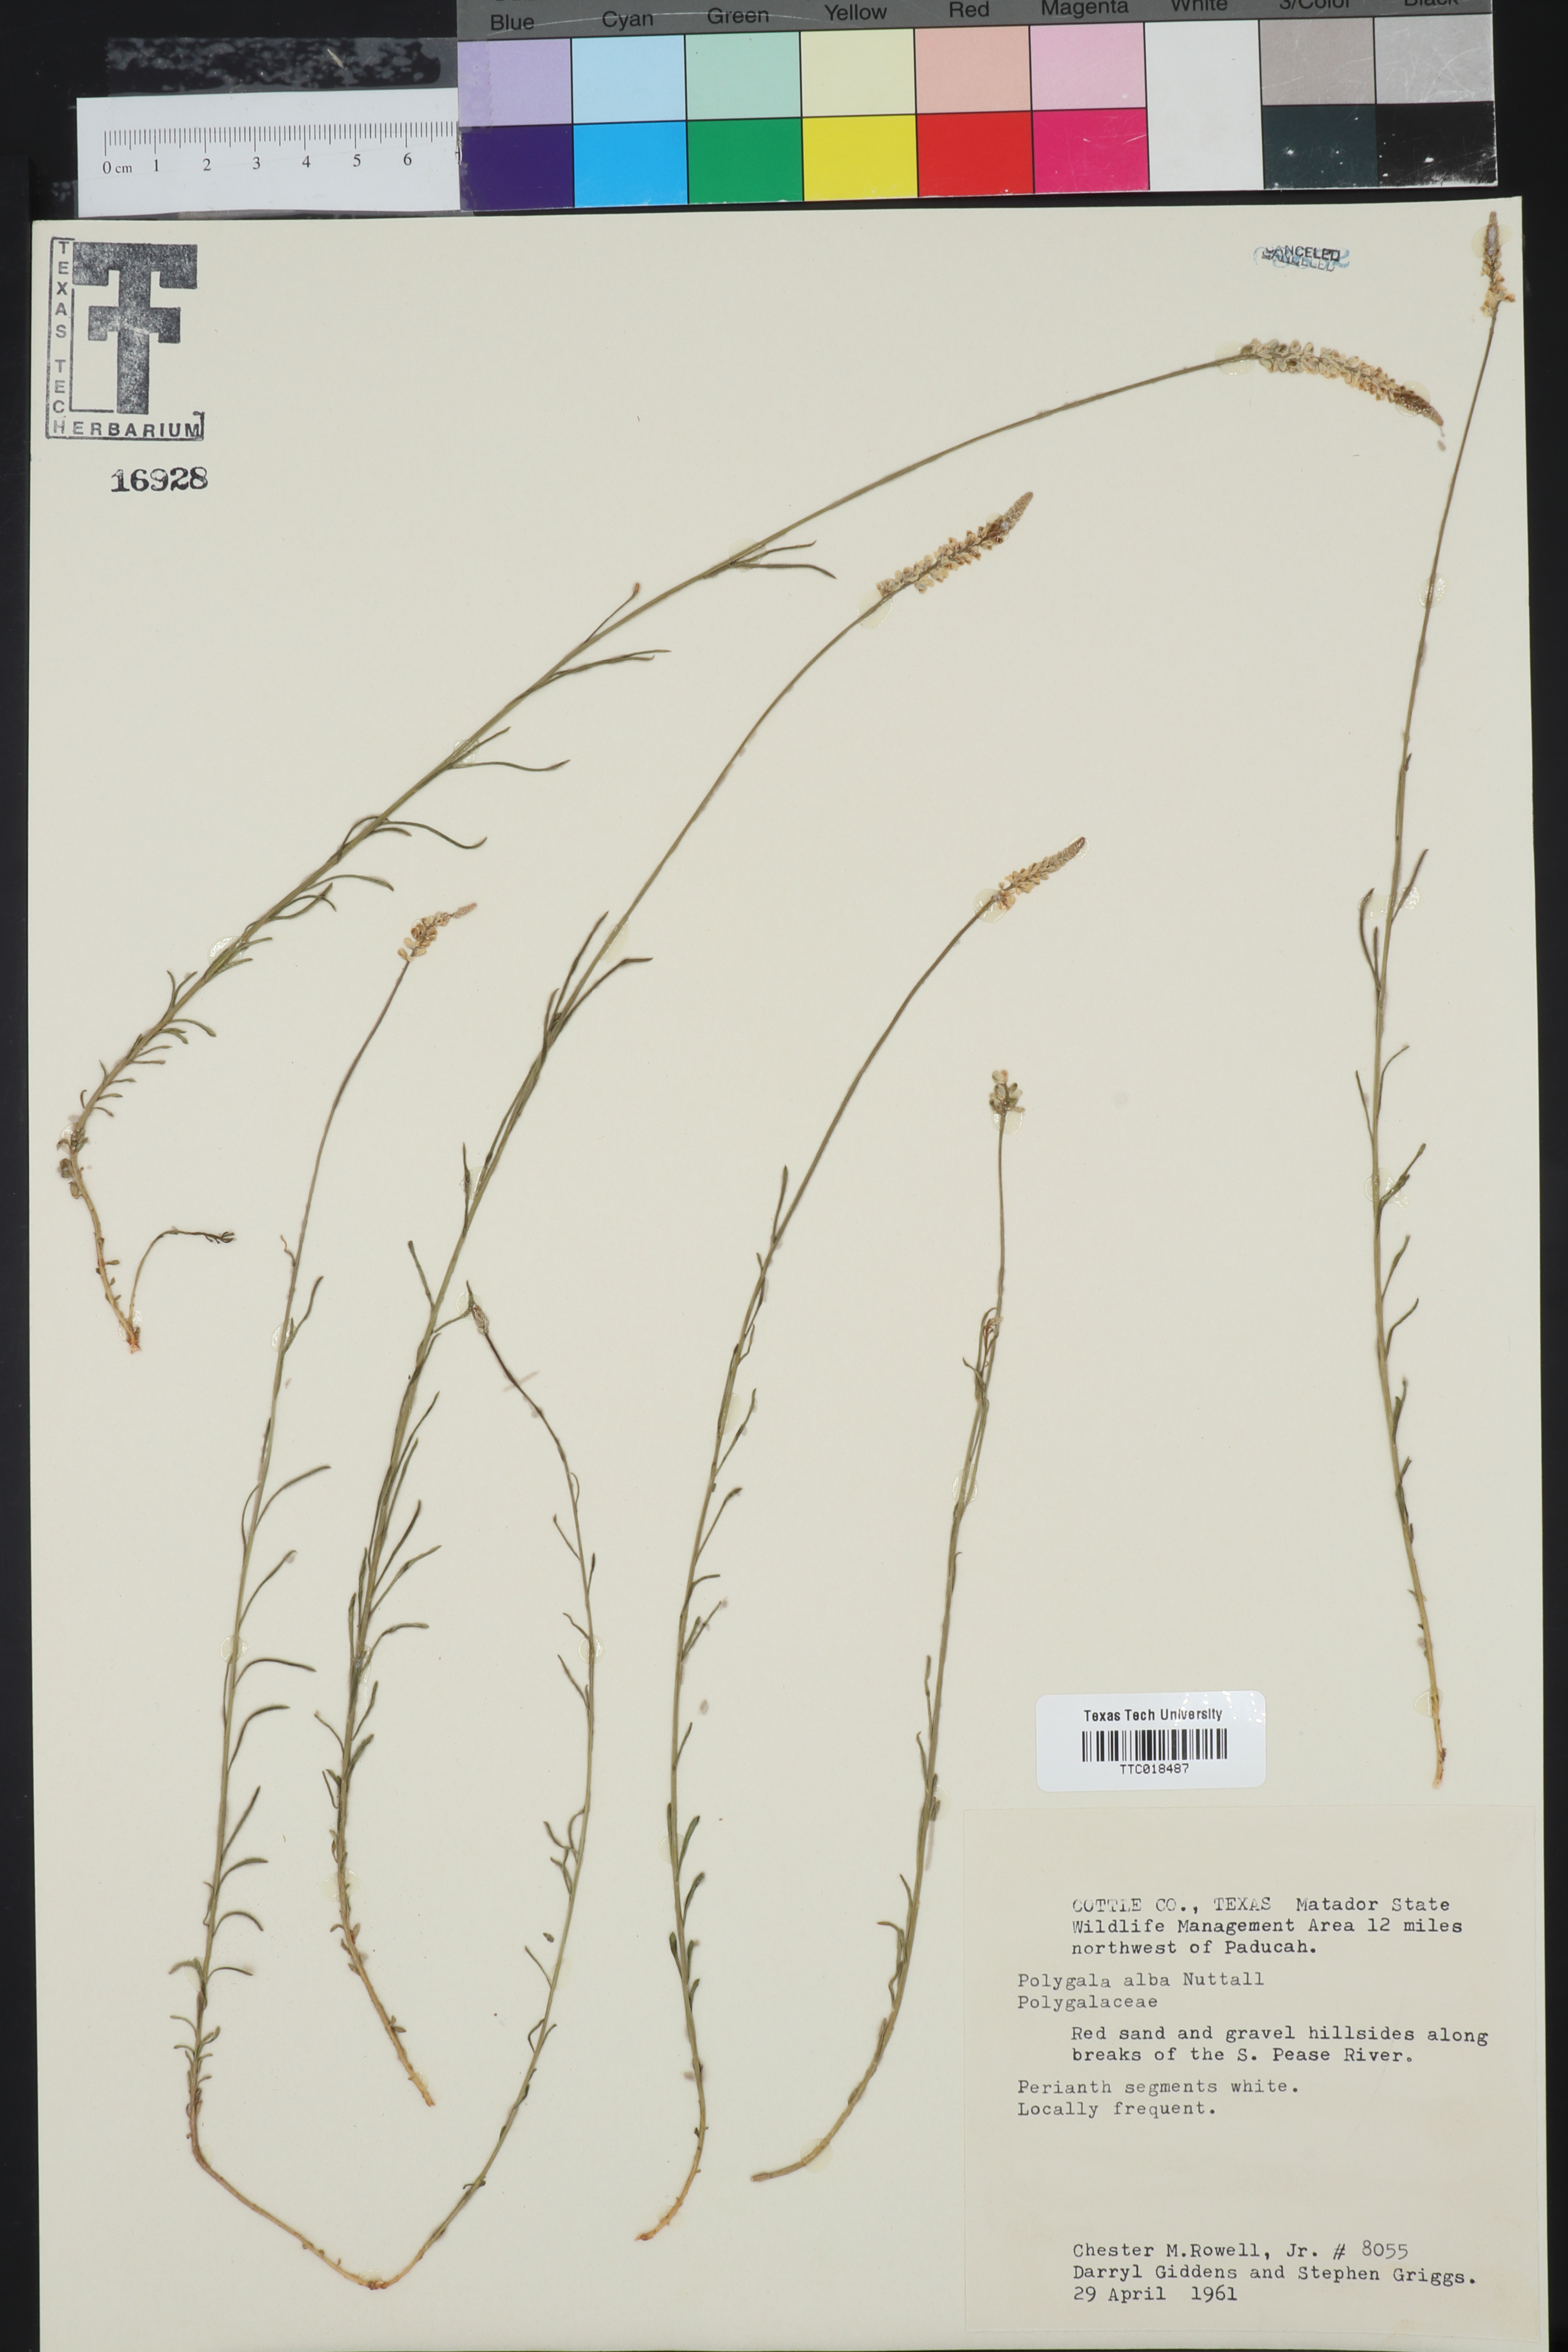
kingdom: Plantae
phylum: Tracheophyta
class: Magnoliopsida
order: Fabales
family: Polygalaceae
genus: Polygala
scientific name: Polygala alba
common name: White milkwort
